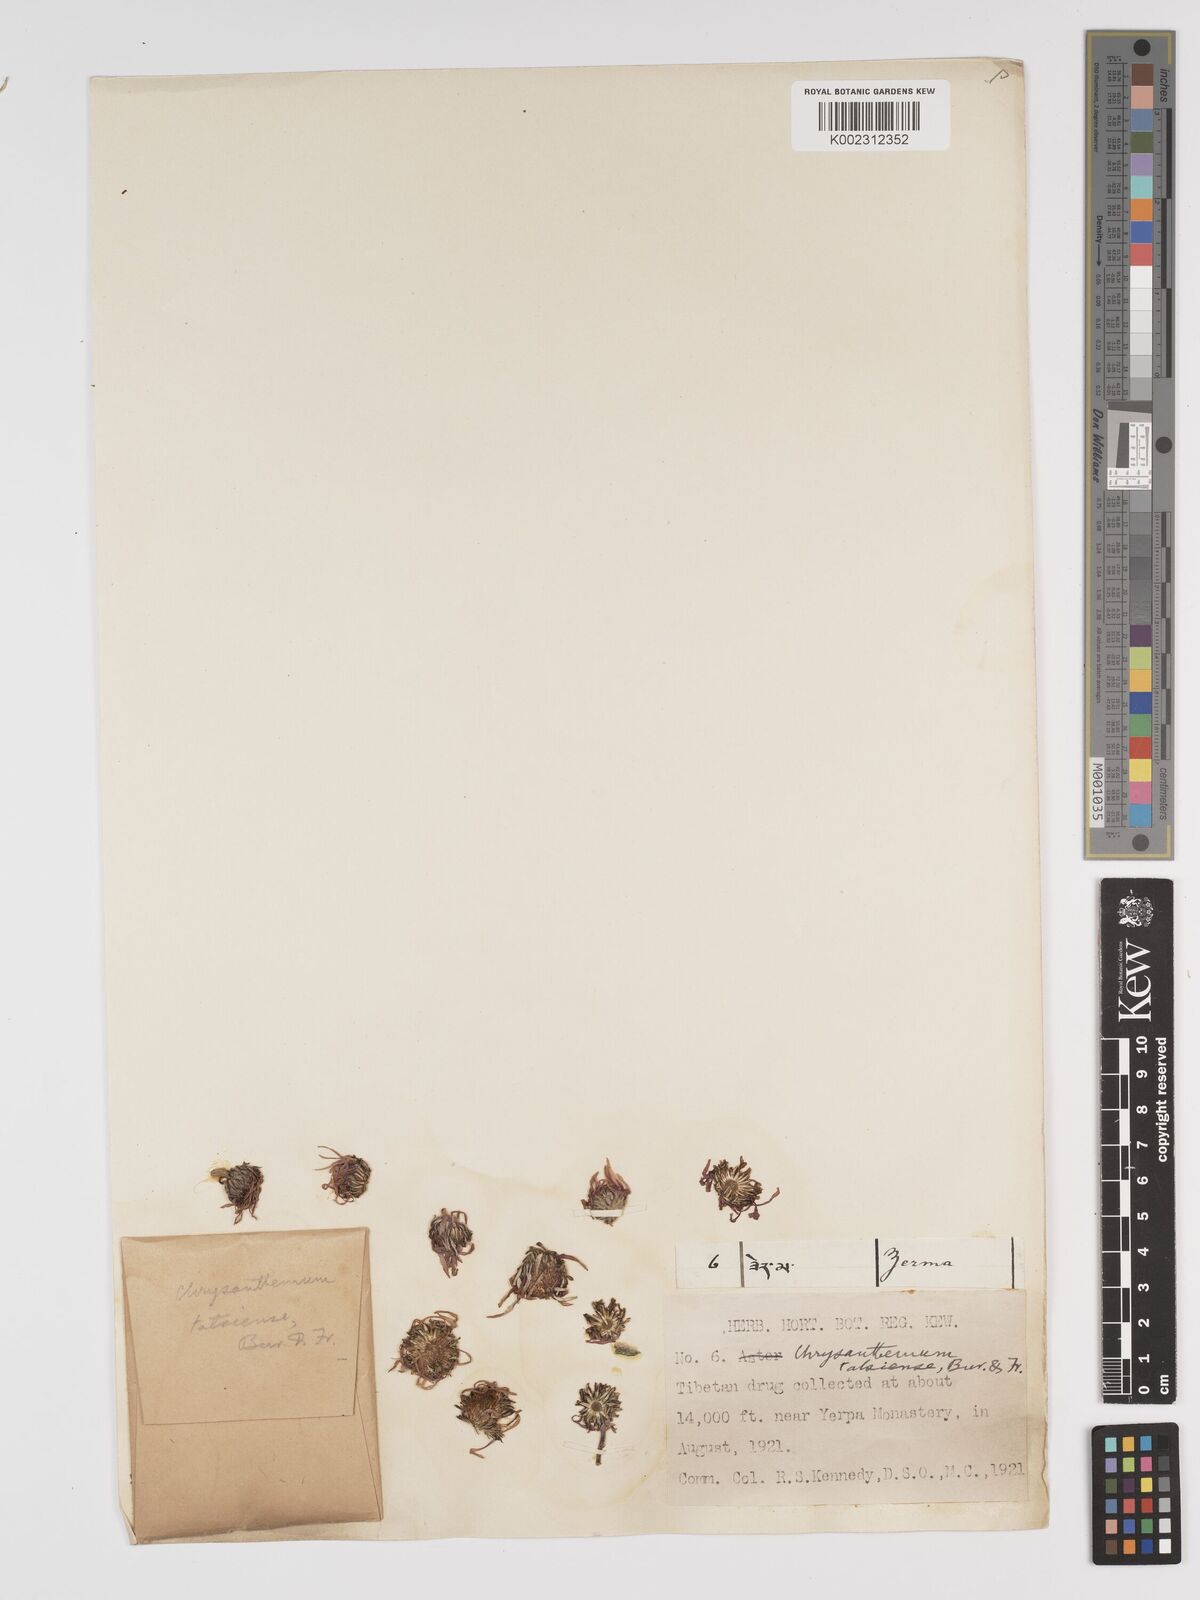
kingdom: Plantae
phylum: Tracheophyta
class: Magnoliopsida
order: Asterales
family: Asteraceae
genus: Tanacetum
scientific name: Tanacetum
